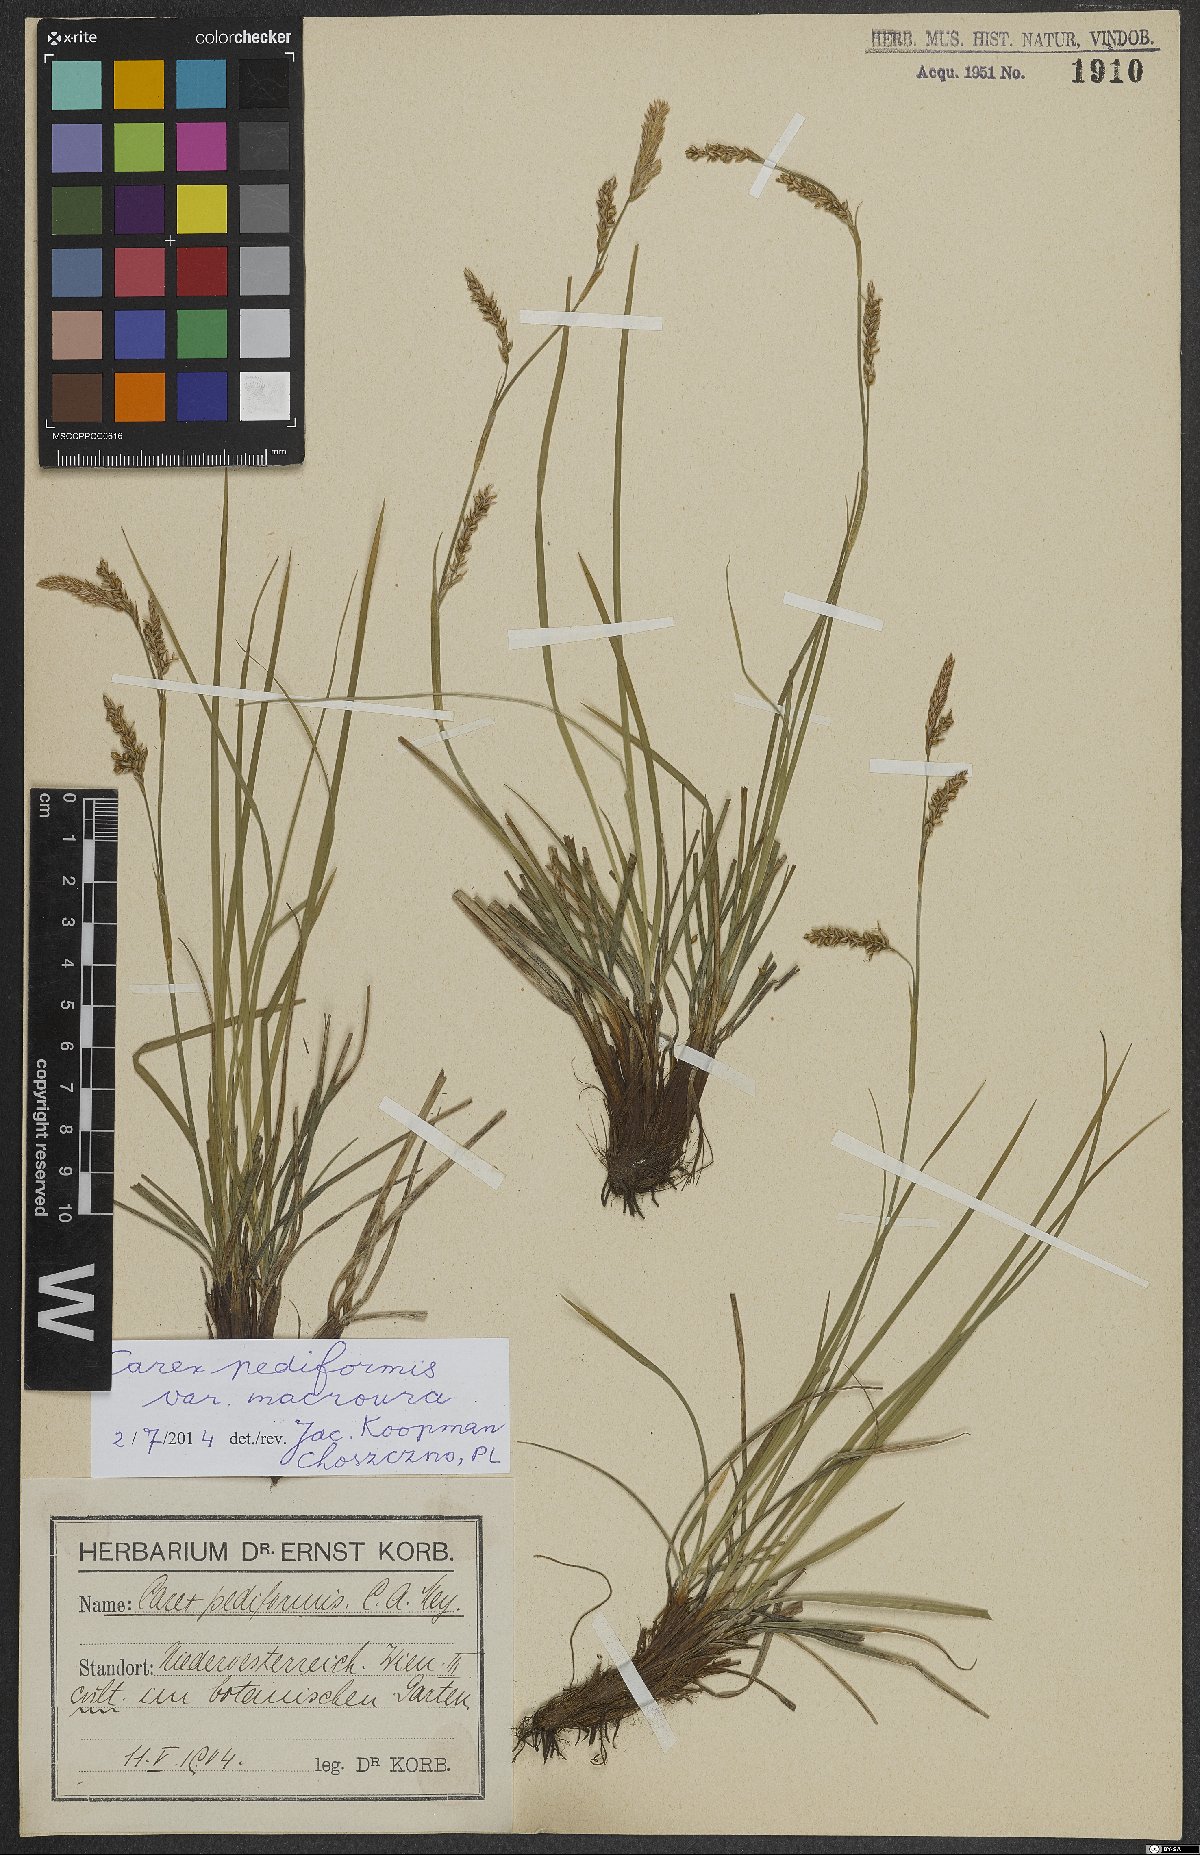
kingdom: Plantae
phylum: Tracheophyta
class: Liliopsida
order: Poales
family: Cyperaceae
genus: Carex
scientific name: Carex pediformis
